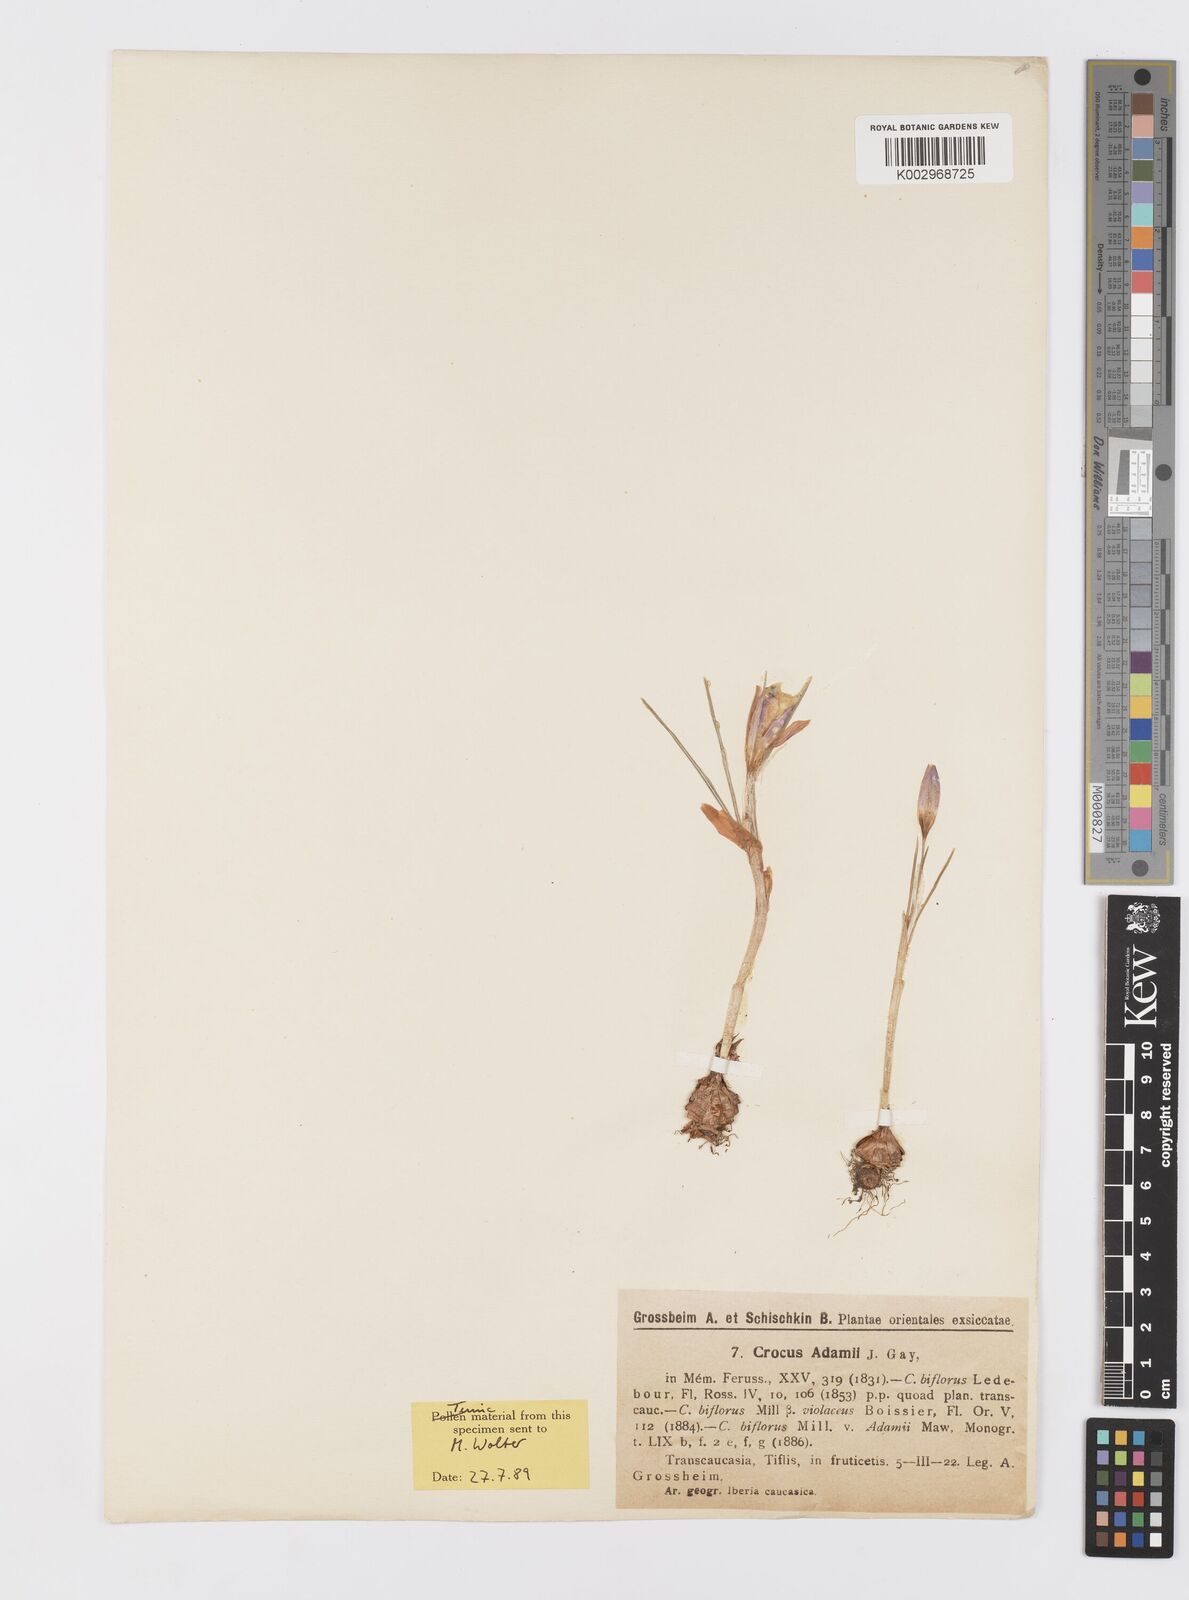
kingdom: Plantae
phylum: Tracheophyta
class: Liliopsida
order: Asparagales
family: Iridaceae
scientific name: Iridaceae
